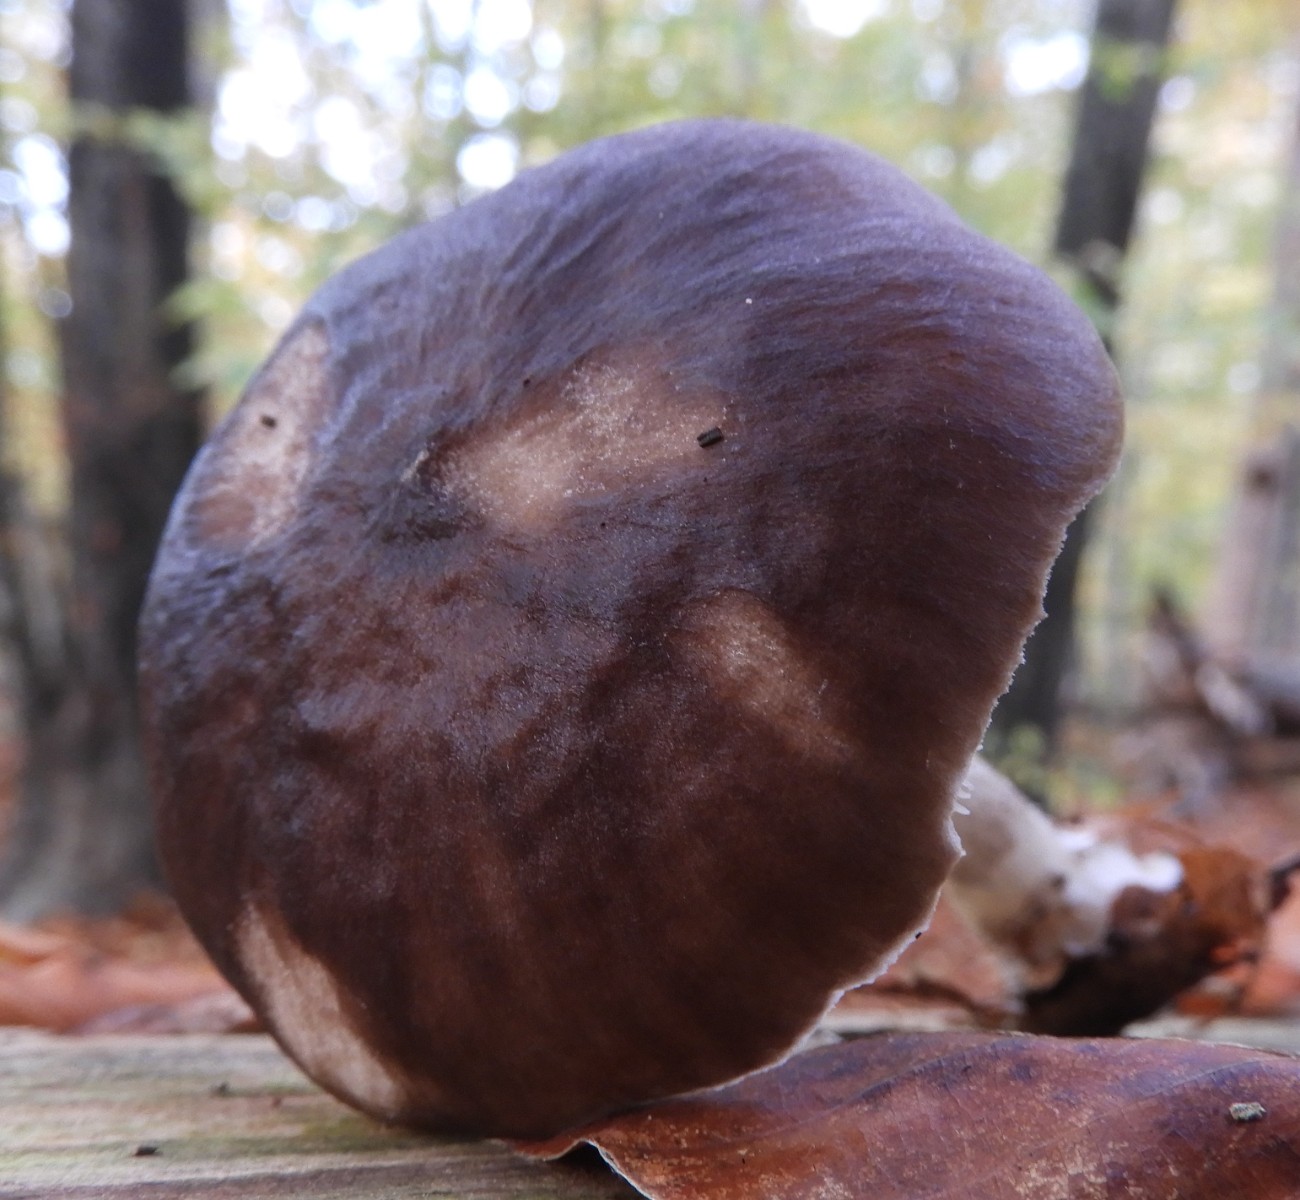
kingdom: Fungi
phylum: Basidiomycota
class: Agaricomycetes
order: Agaricales
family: Pluteaceae
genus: Pluteus
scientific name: Pluteus cervinus
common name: sodfarvet skærmhat
